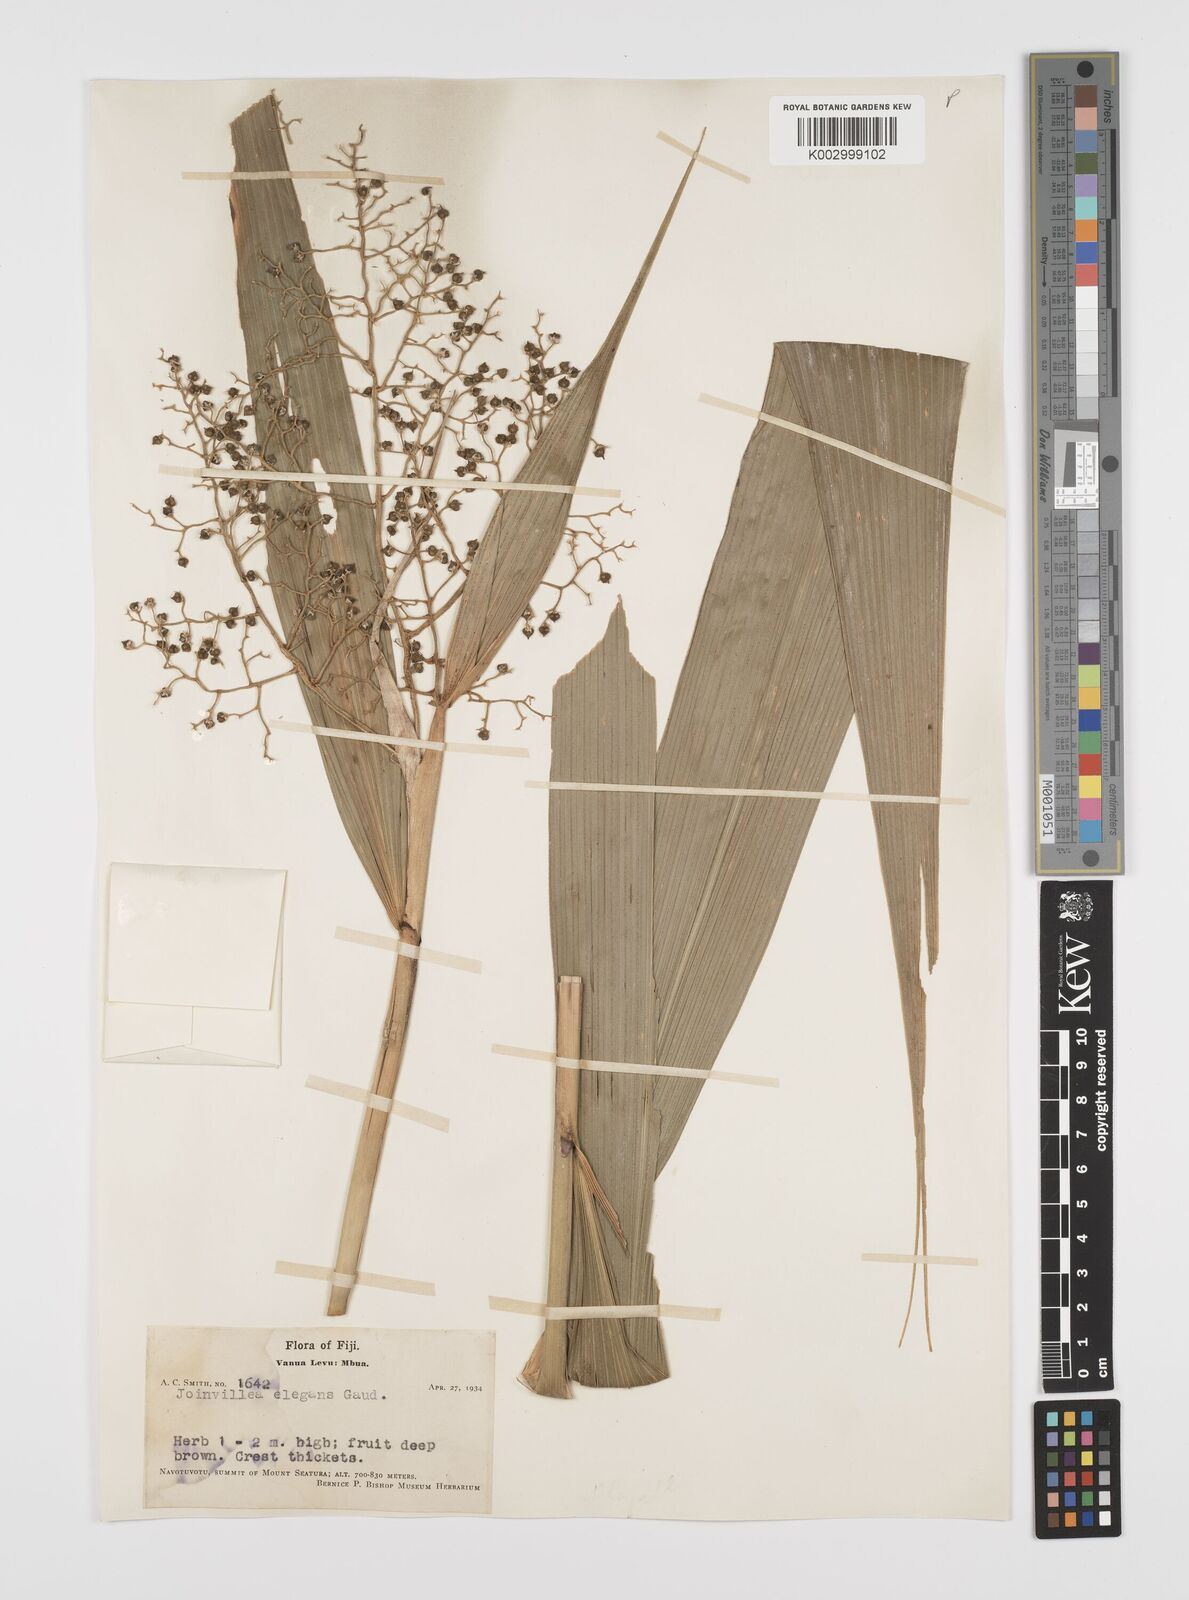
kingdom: Plantae
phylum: Tracheophyta
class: Liliopsida
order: Poales
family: Joinvilleaceae
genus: Joinvillea
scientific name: Joinvillea plicata
